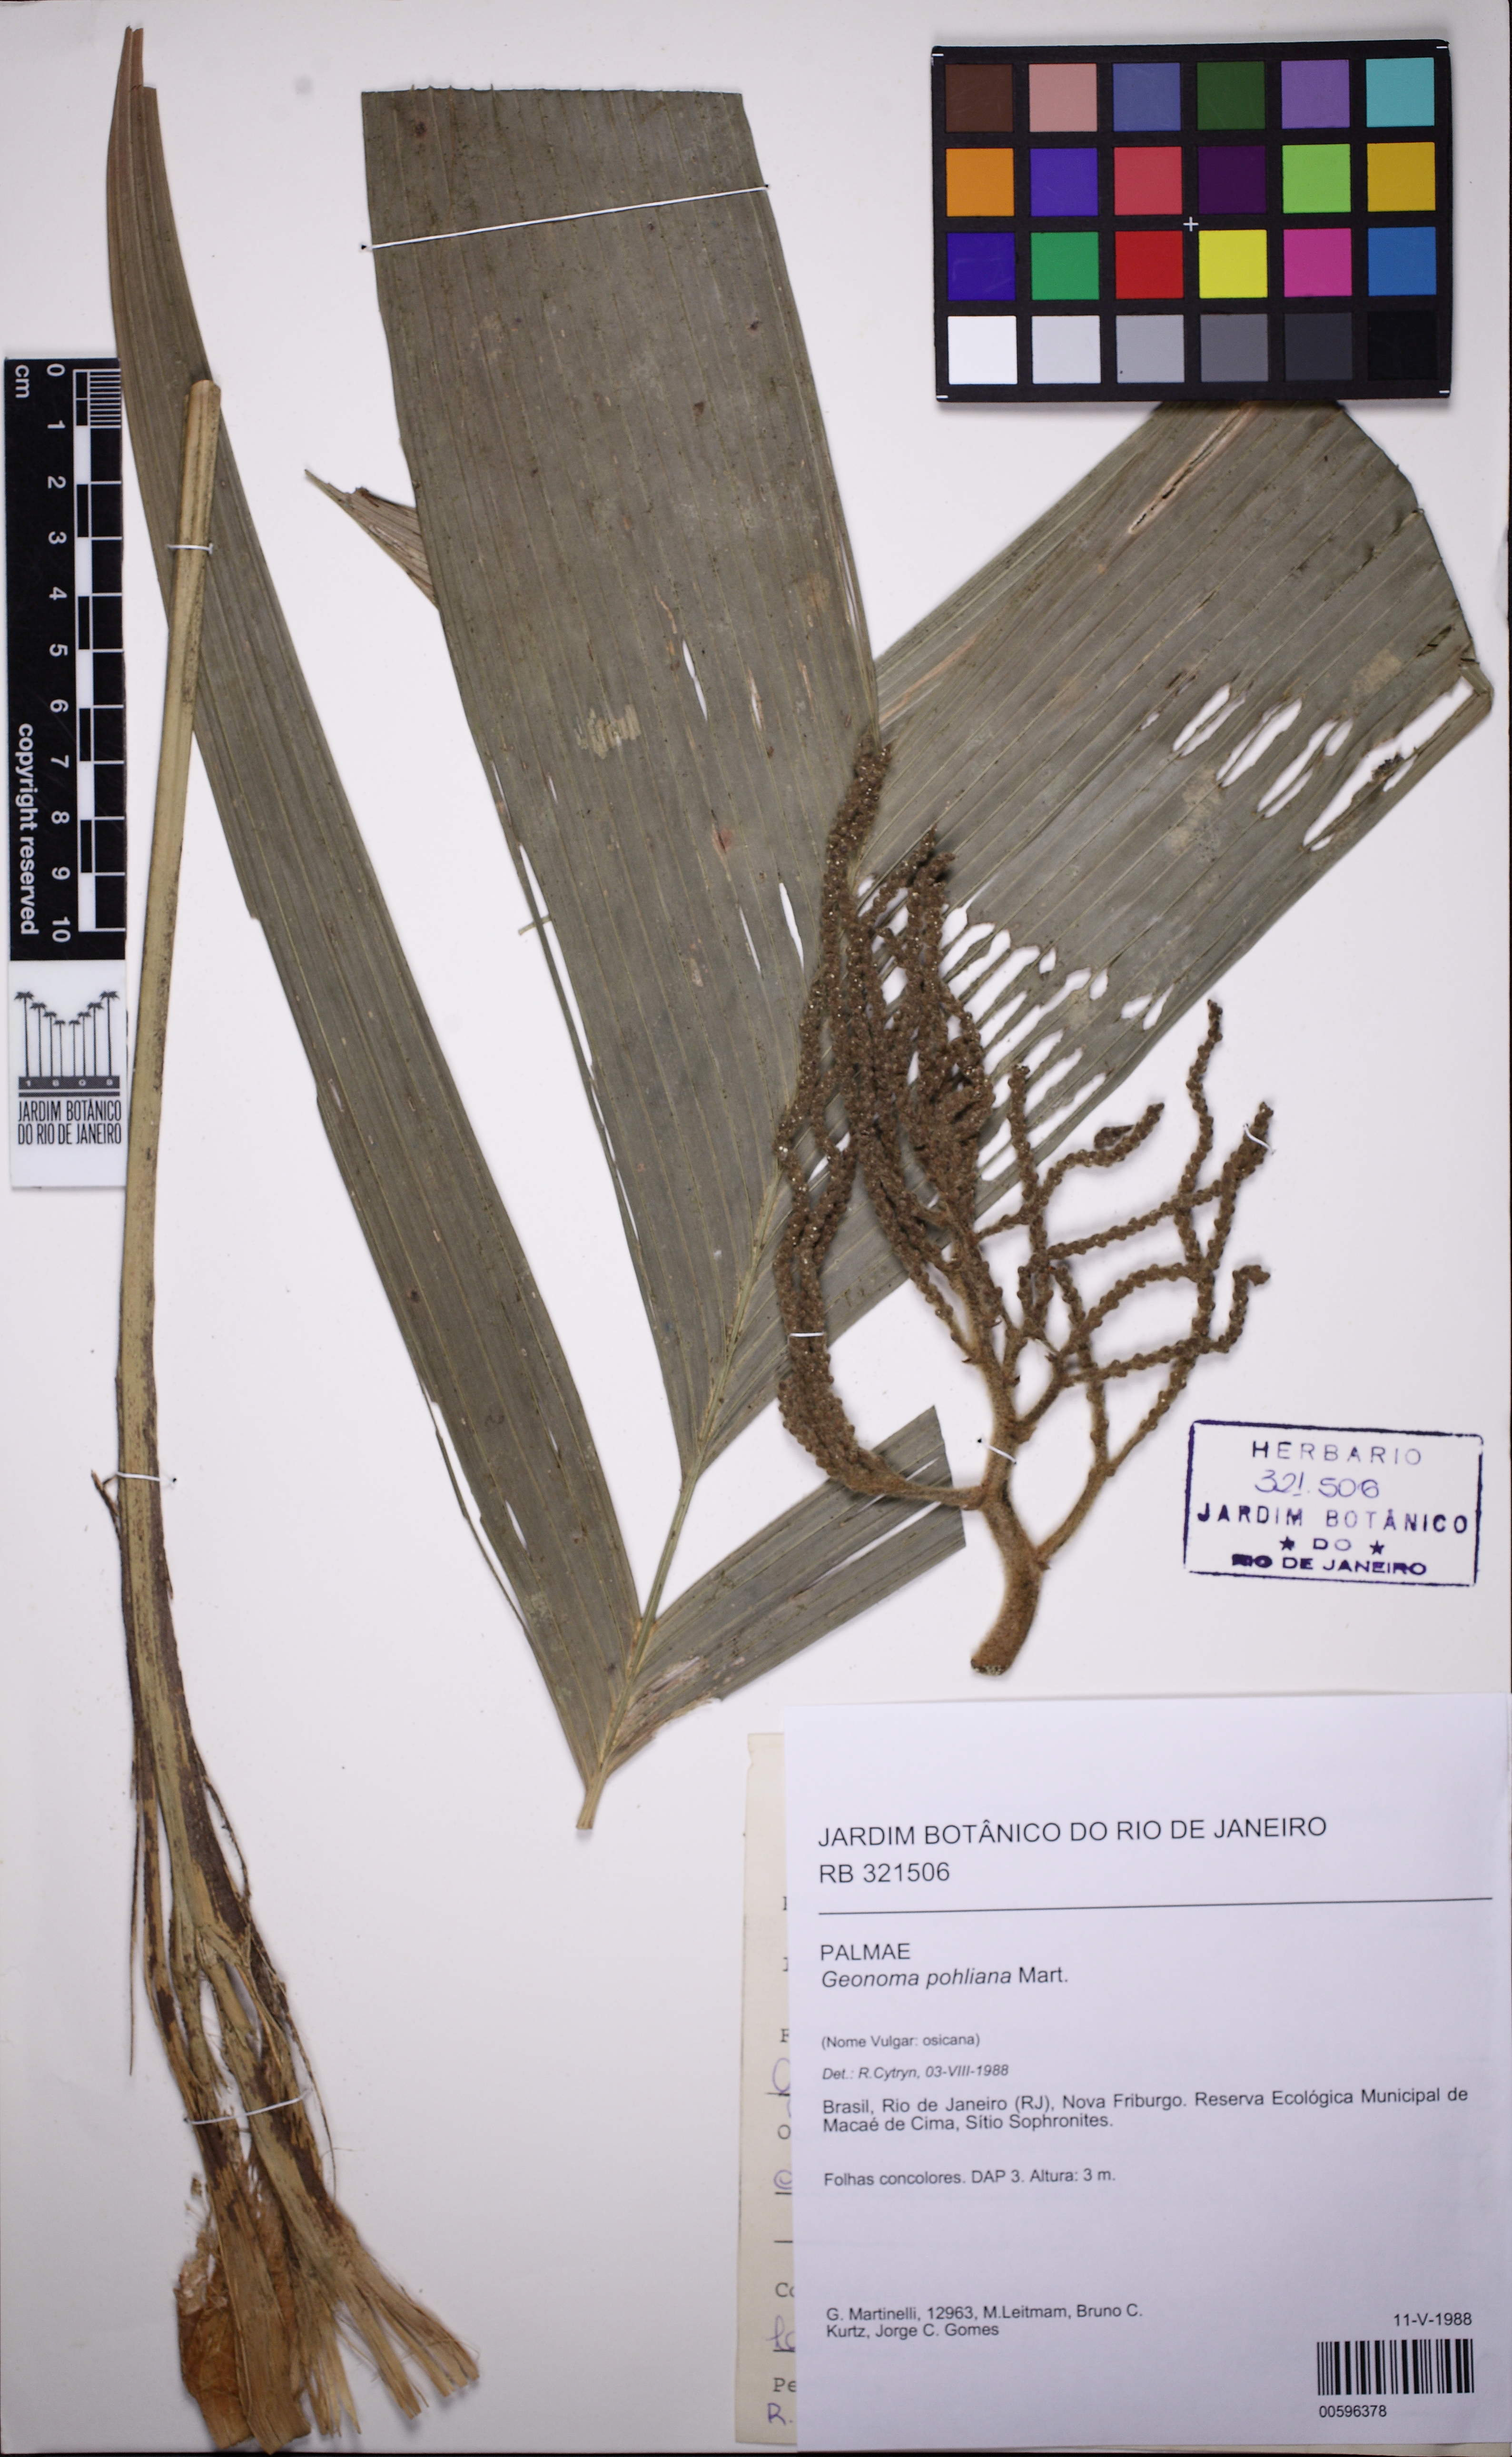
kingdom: Plantae
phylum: Tracheophyta
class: Liliopsida
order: Arecales
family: Arecaceae
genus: Geonoma
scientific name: Geonoma pohliana
